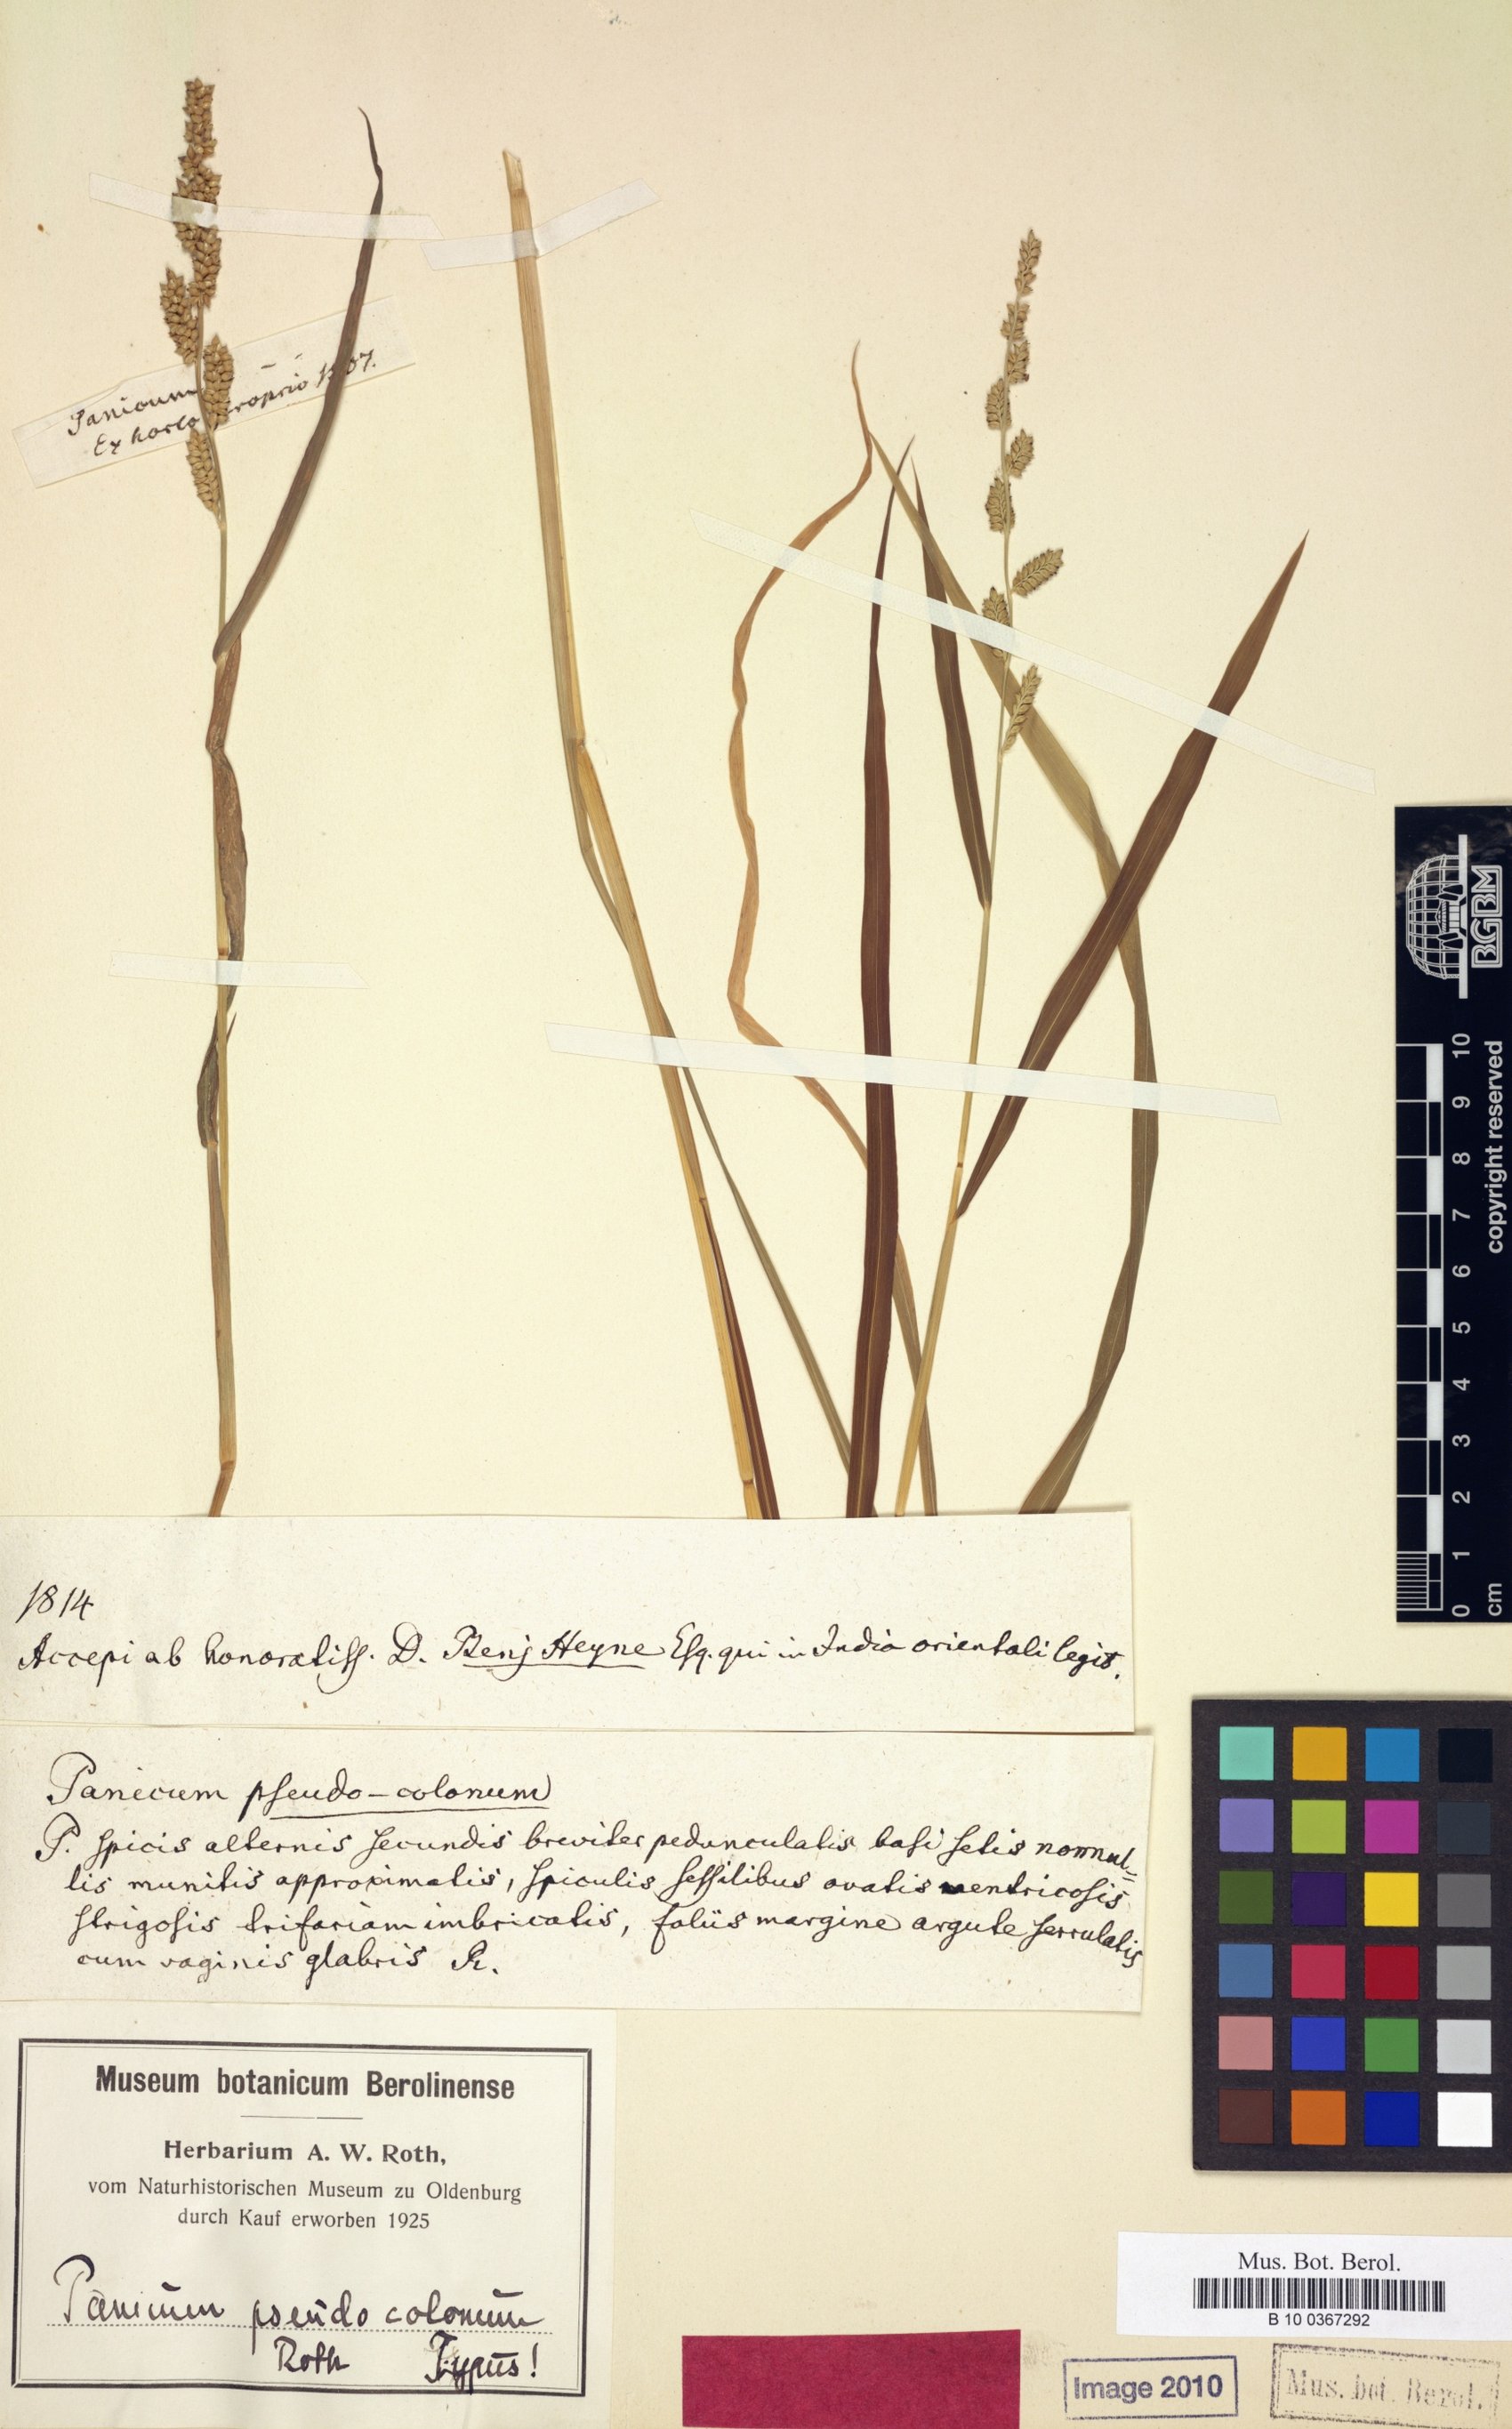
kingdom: Plantae
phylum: Tracheophyta
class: Liliopsida
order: Poales
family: Poaceae
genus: Echinochloa
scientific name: Echinochloa colonum
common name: Jungle rice
